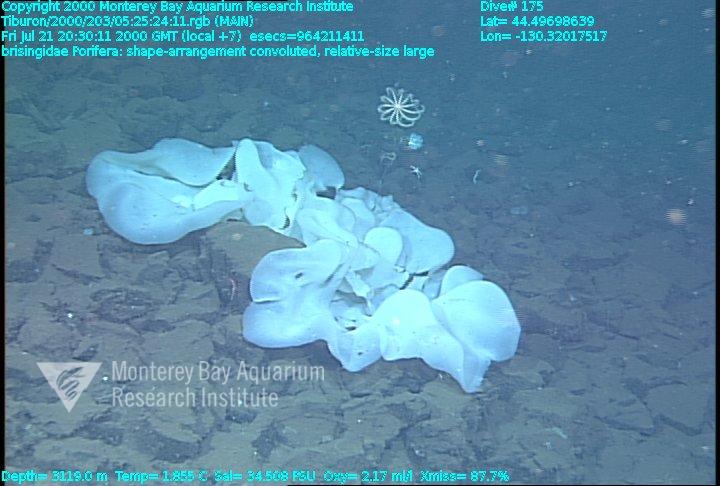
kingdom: Animalia
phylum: Porifera
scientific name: Porifera
